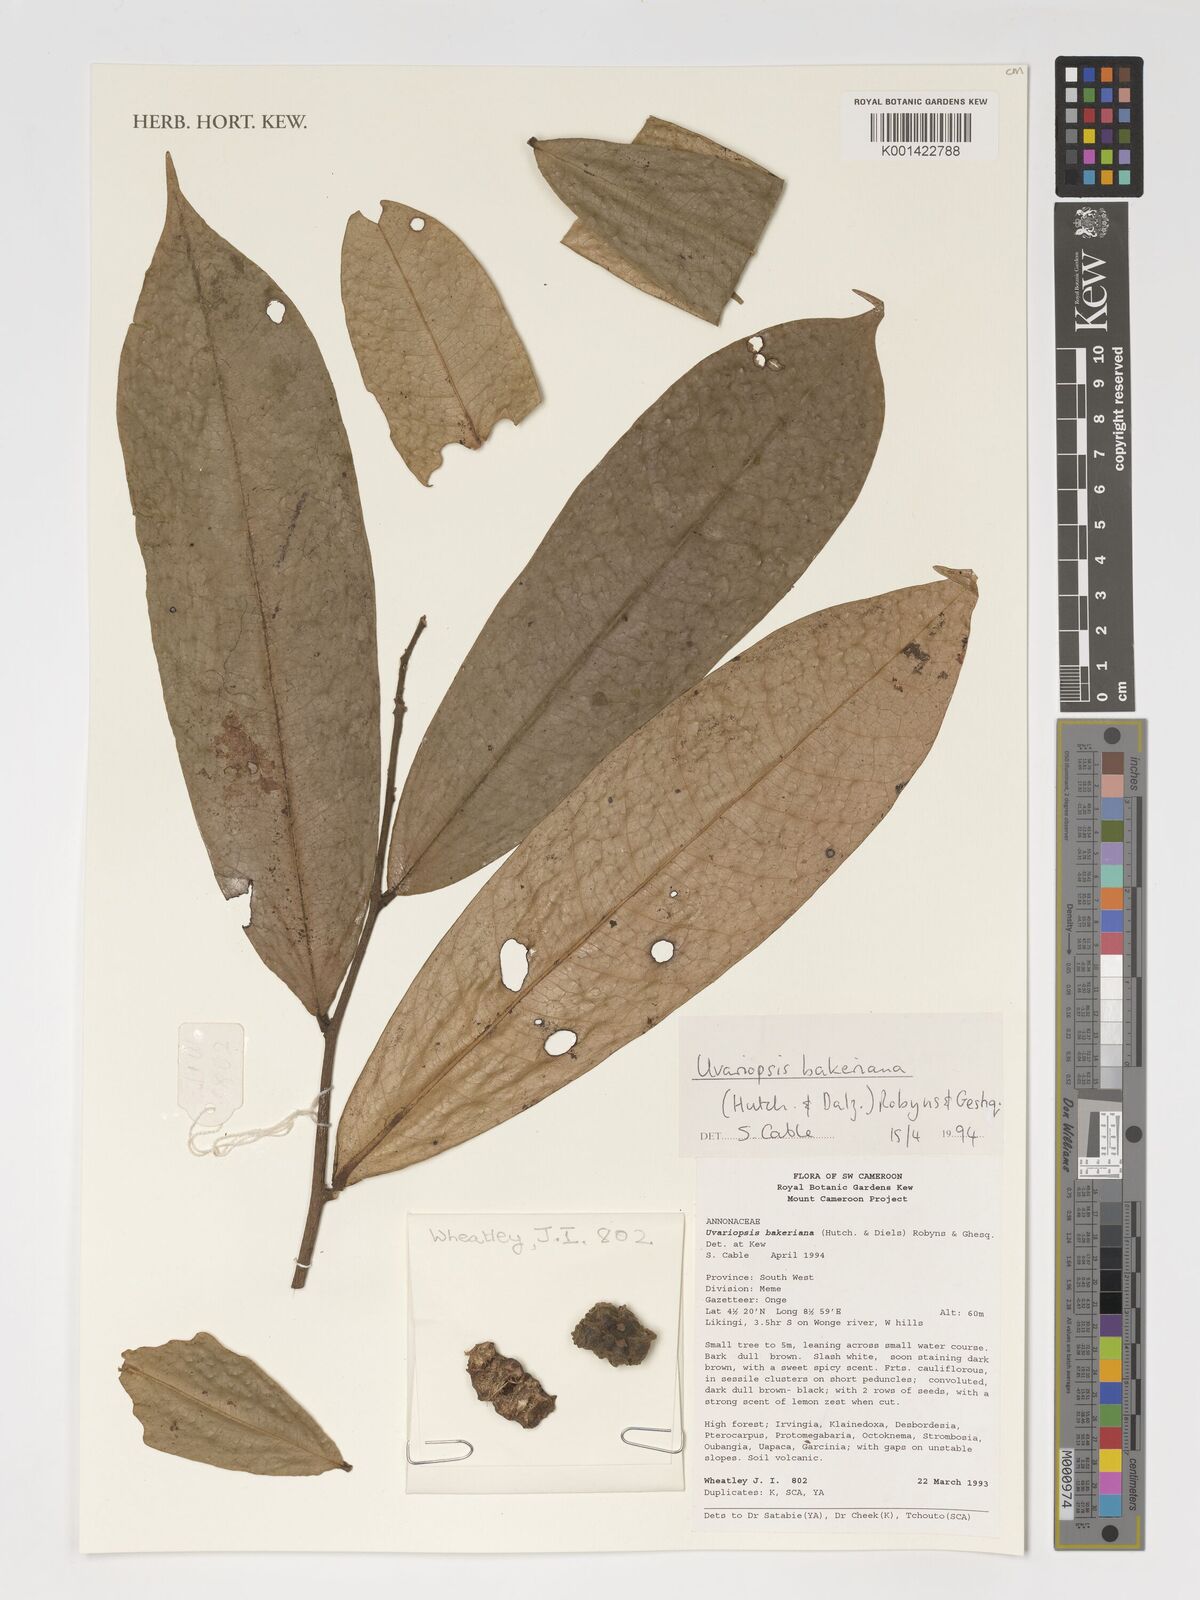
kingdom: Plantae
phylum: Tracheophyta
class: Magnoliopsida
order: Magnoliales
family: Annonaceae
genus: Uvariopsis
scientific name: Uvariopsis bakeriana
